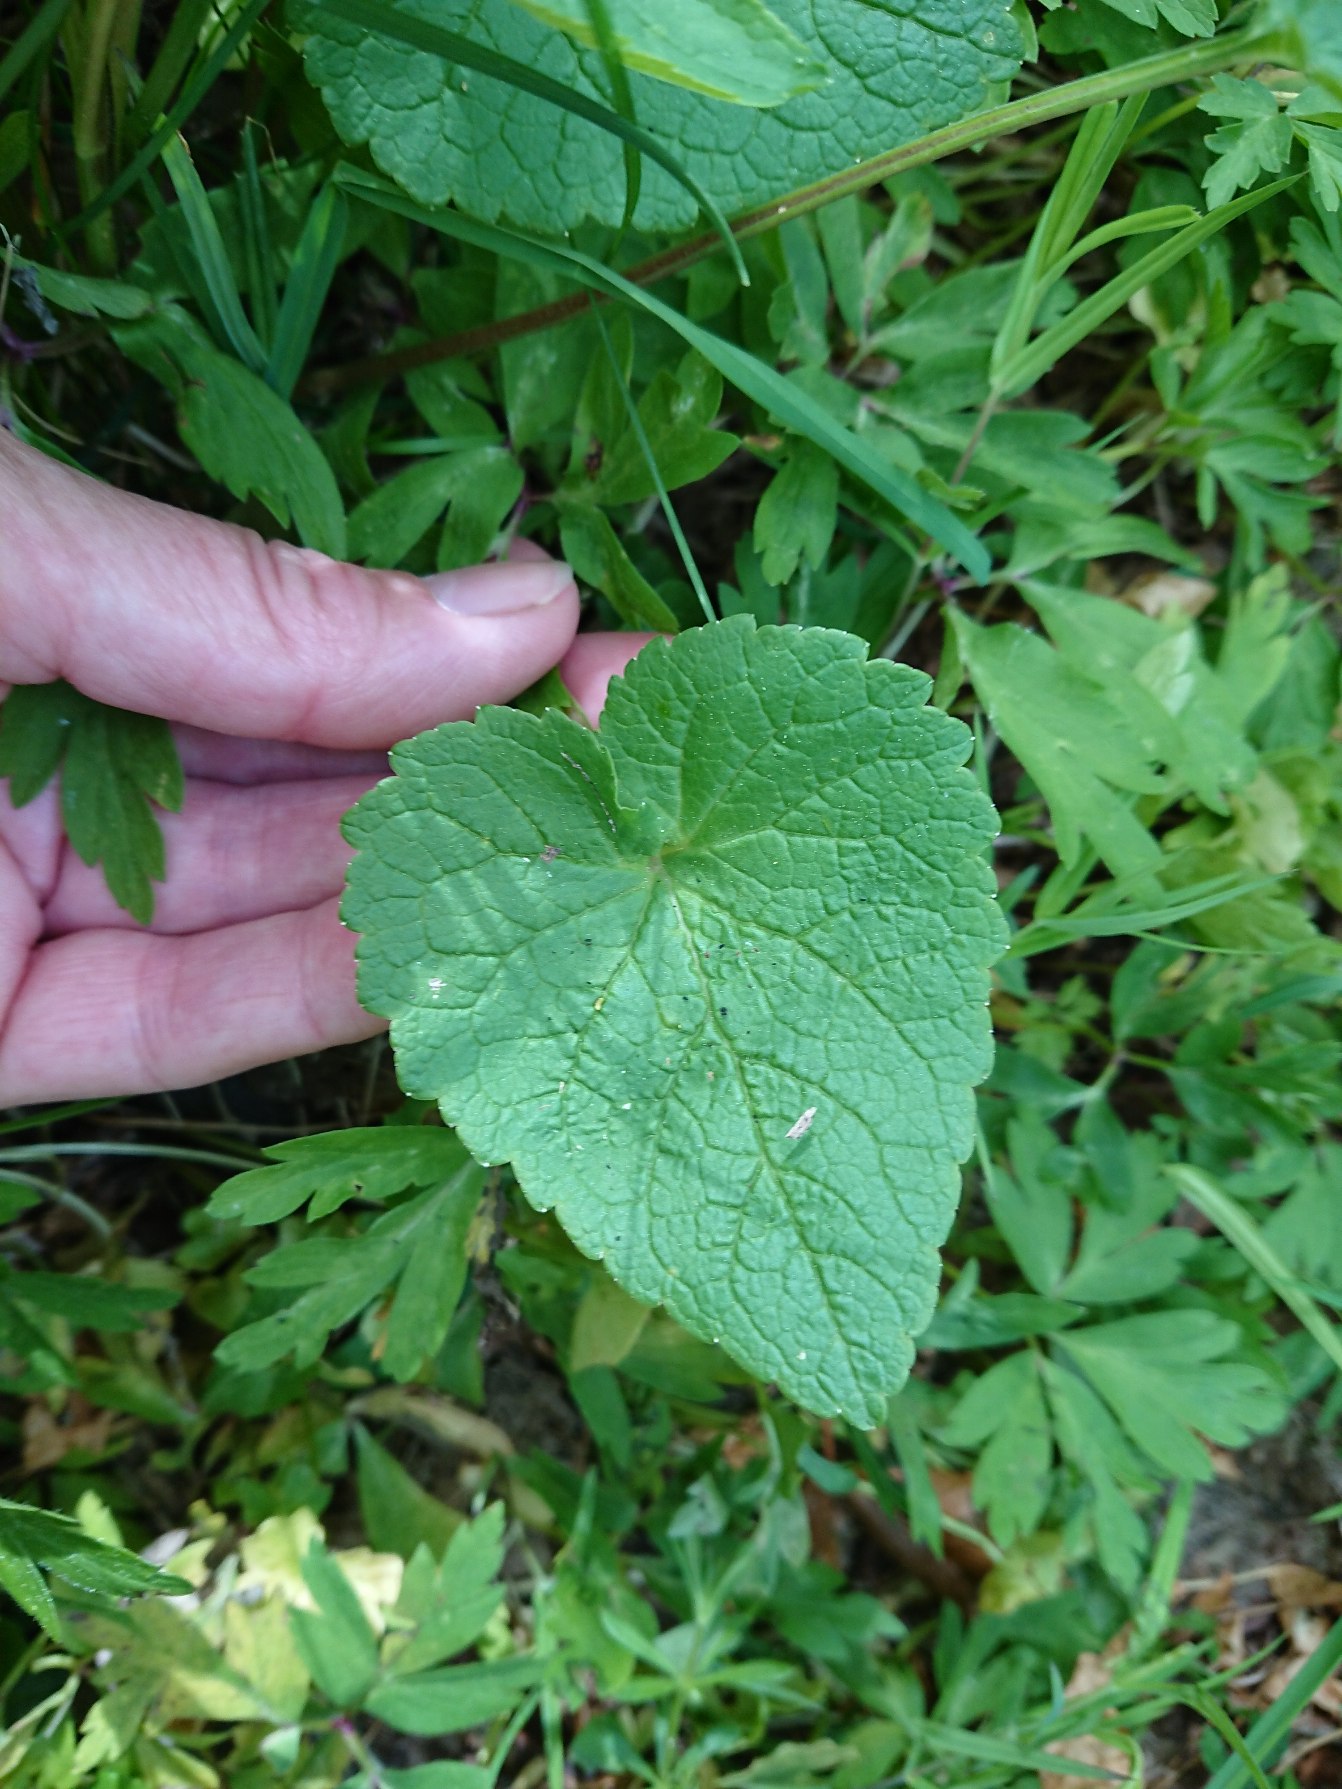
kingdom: Plantae
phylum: Tracheophyta
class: Magnoliopsida
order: Asterales
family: Campanulaceae
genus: Phyteuma
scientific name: Phyteuma spicatum
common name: Aks-rapunsel
